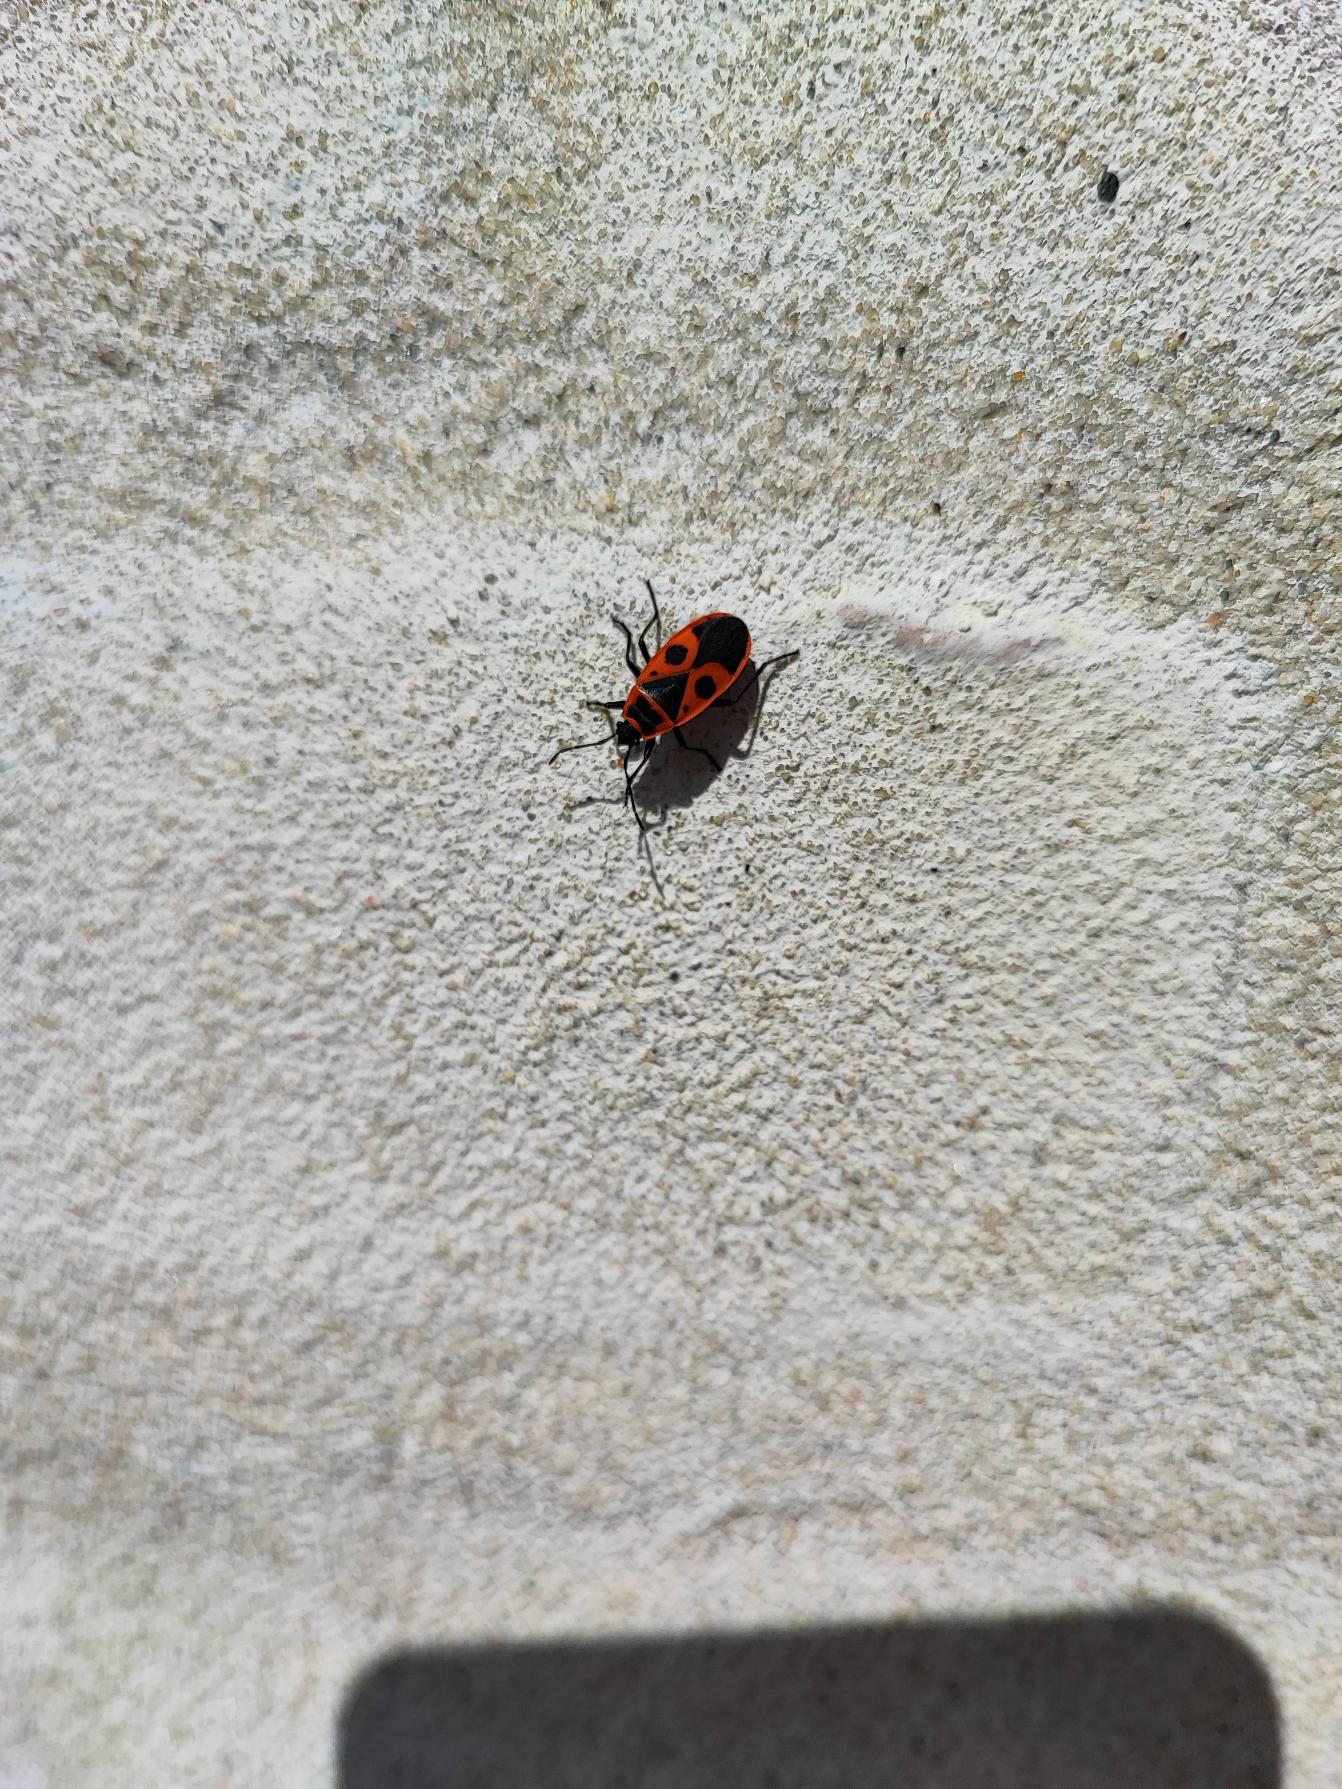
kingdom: Animalia
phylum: Arthropoda
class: Insecta
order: Hemiptera
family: Pyrrhocoridae
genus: Pyrrhocoris
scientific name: Pyrrhocoris apterus
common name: Ildtæge
